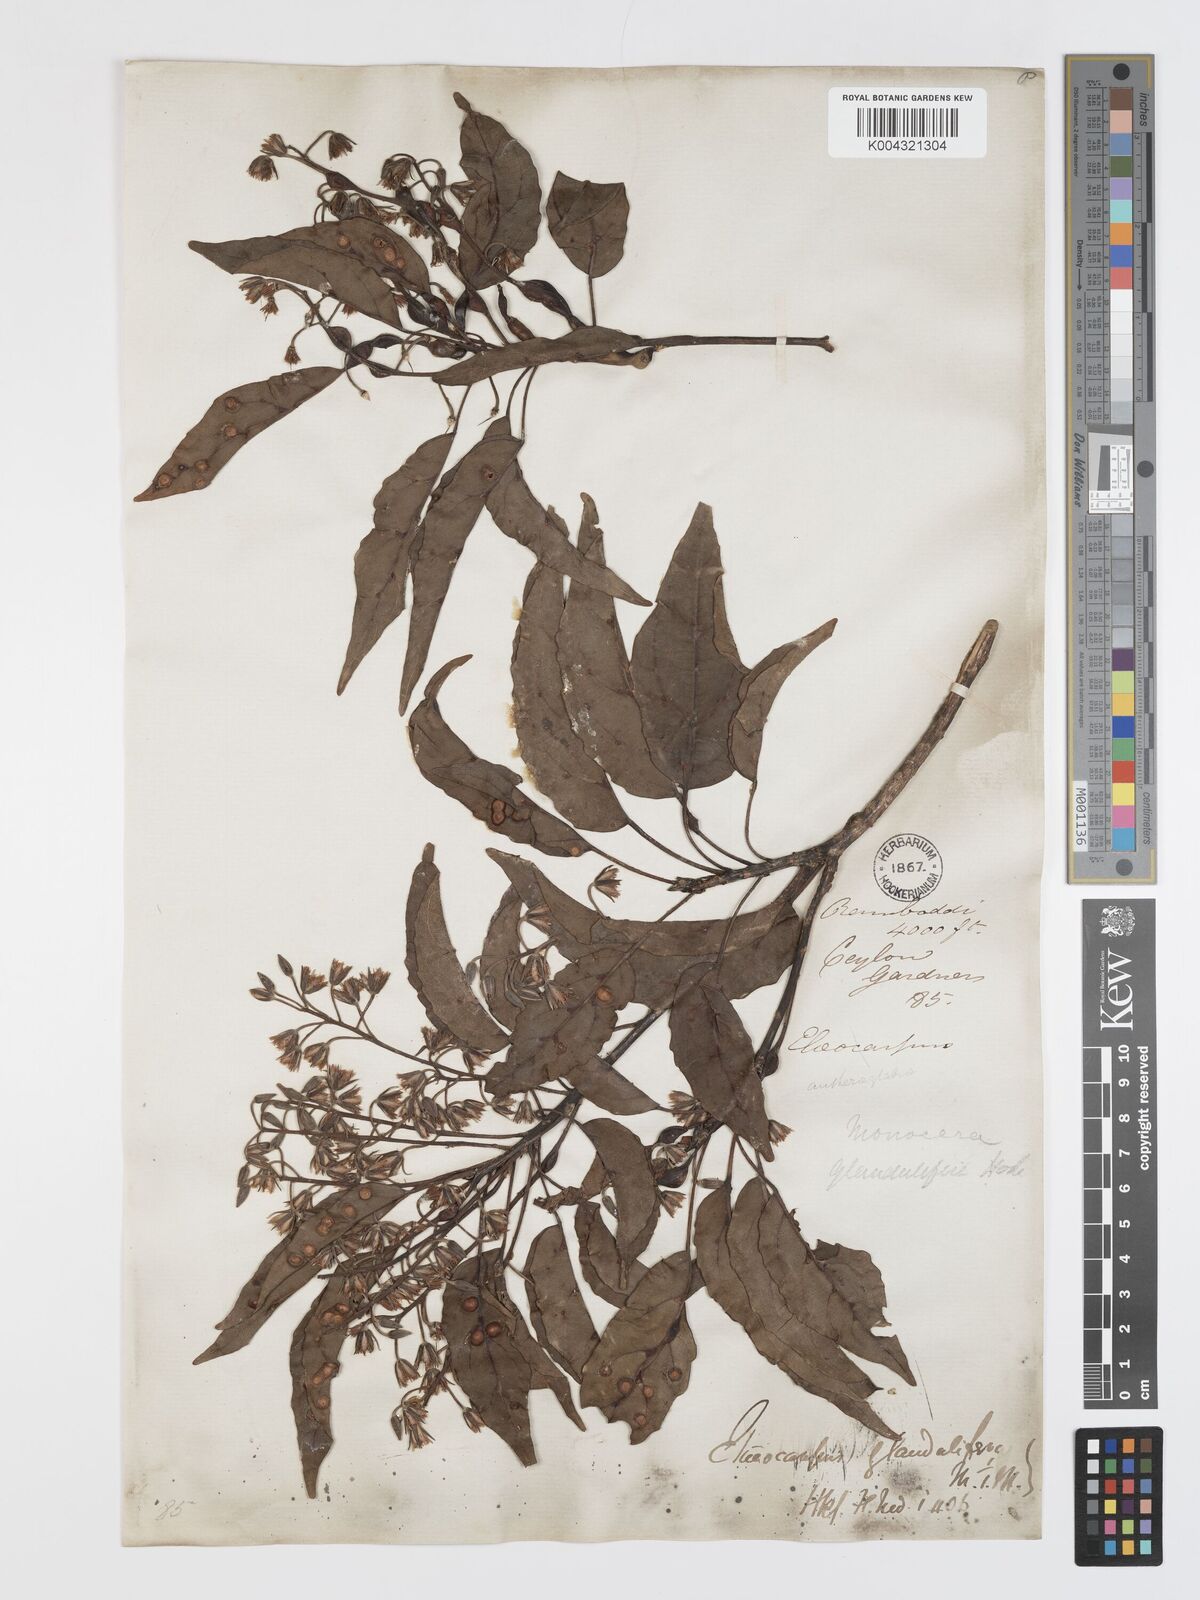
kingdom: Plantae
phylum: Tracheophyta
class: Magnoliopsida
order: Oxalidales
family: Elaeocarpaceae
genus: Elaeocarpus
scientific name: Elaeocarpus glandulifer
